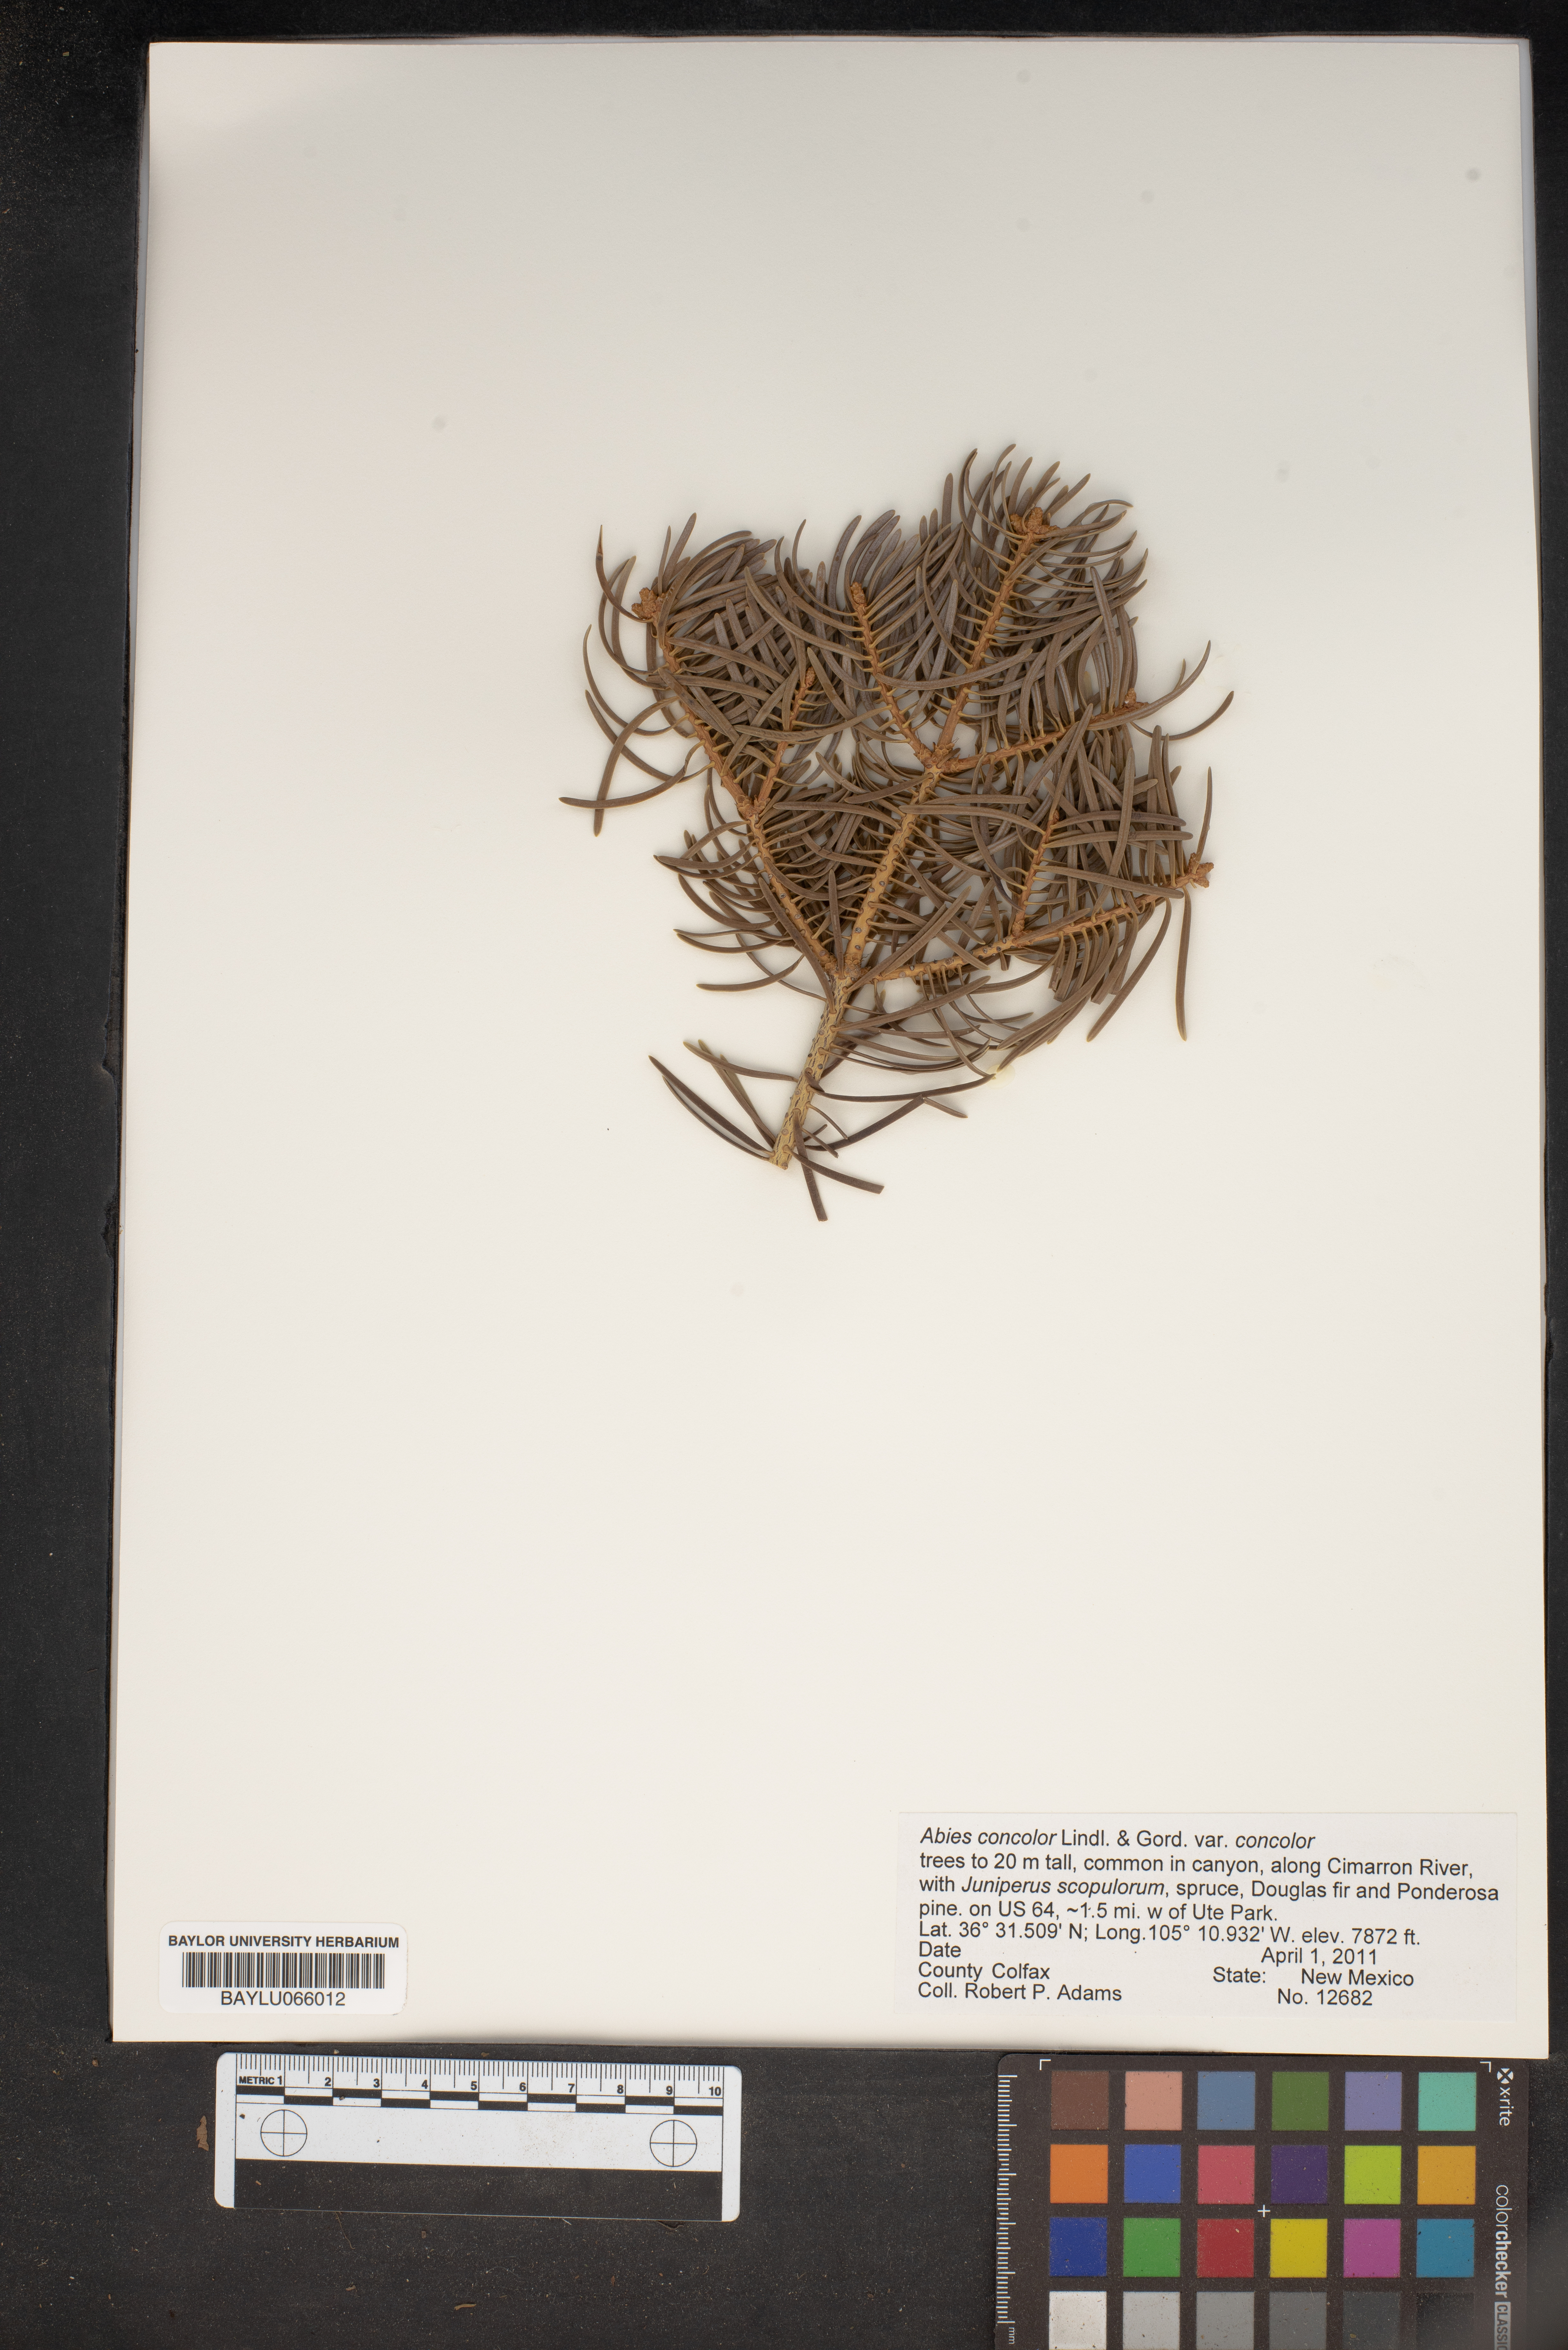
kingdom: Plantae
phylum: Tracheophyta
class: Pinopsida
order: Pinales
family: Pinaceae
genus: Abies
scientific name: Abies concolor
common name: Colorado fir
